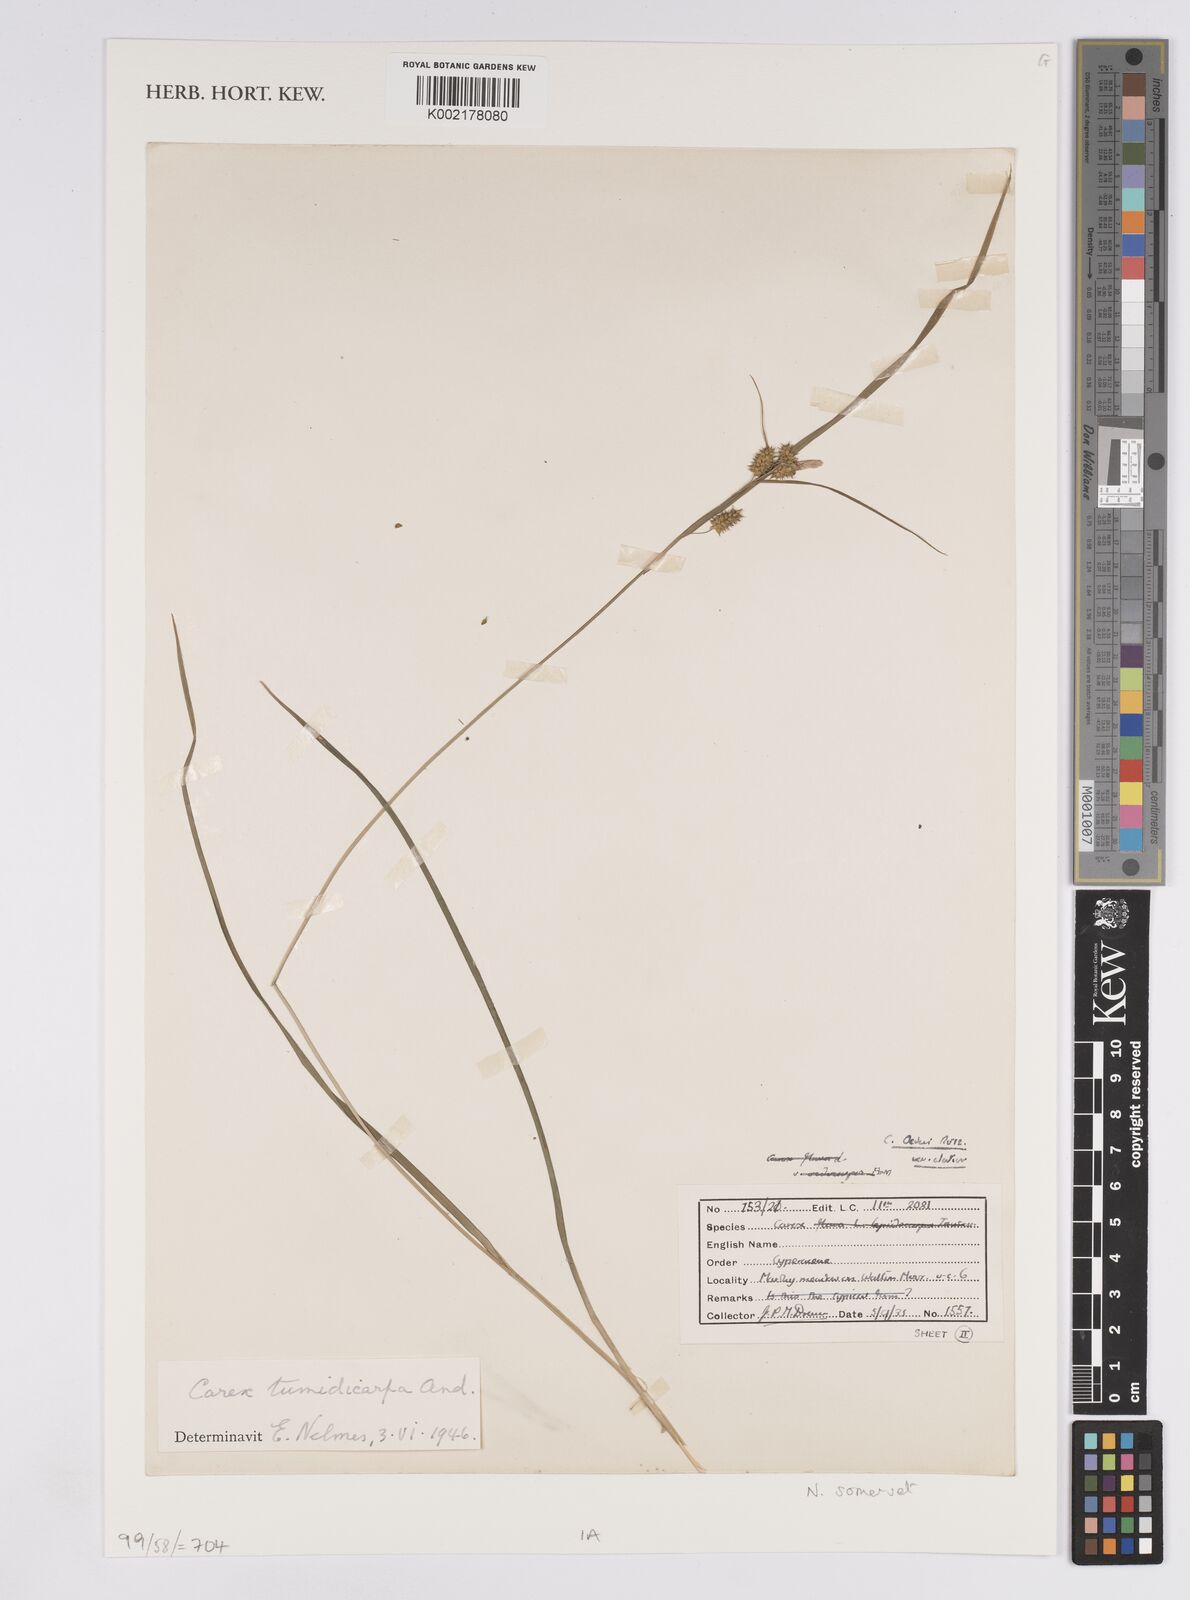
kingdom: Plantae
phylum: Tracheophyta
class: Liliopsida
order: Poales
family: Cyperaceae
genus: Carex
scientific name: Carex demissa
